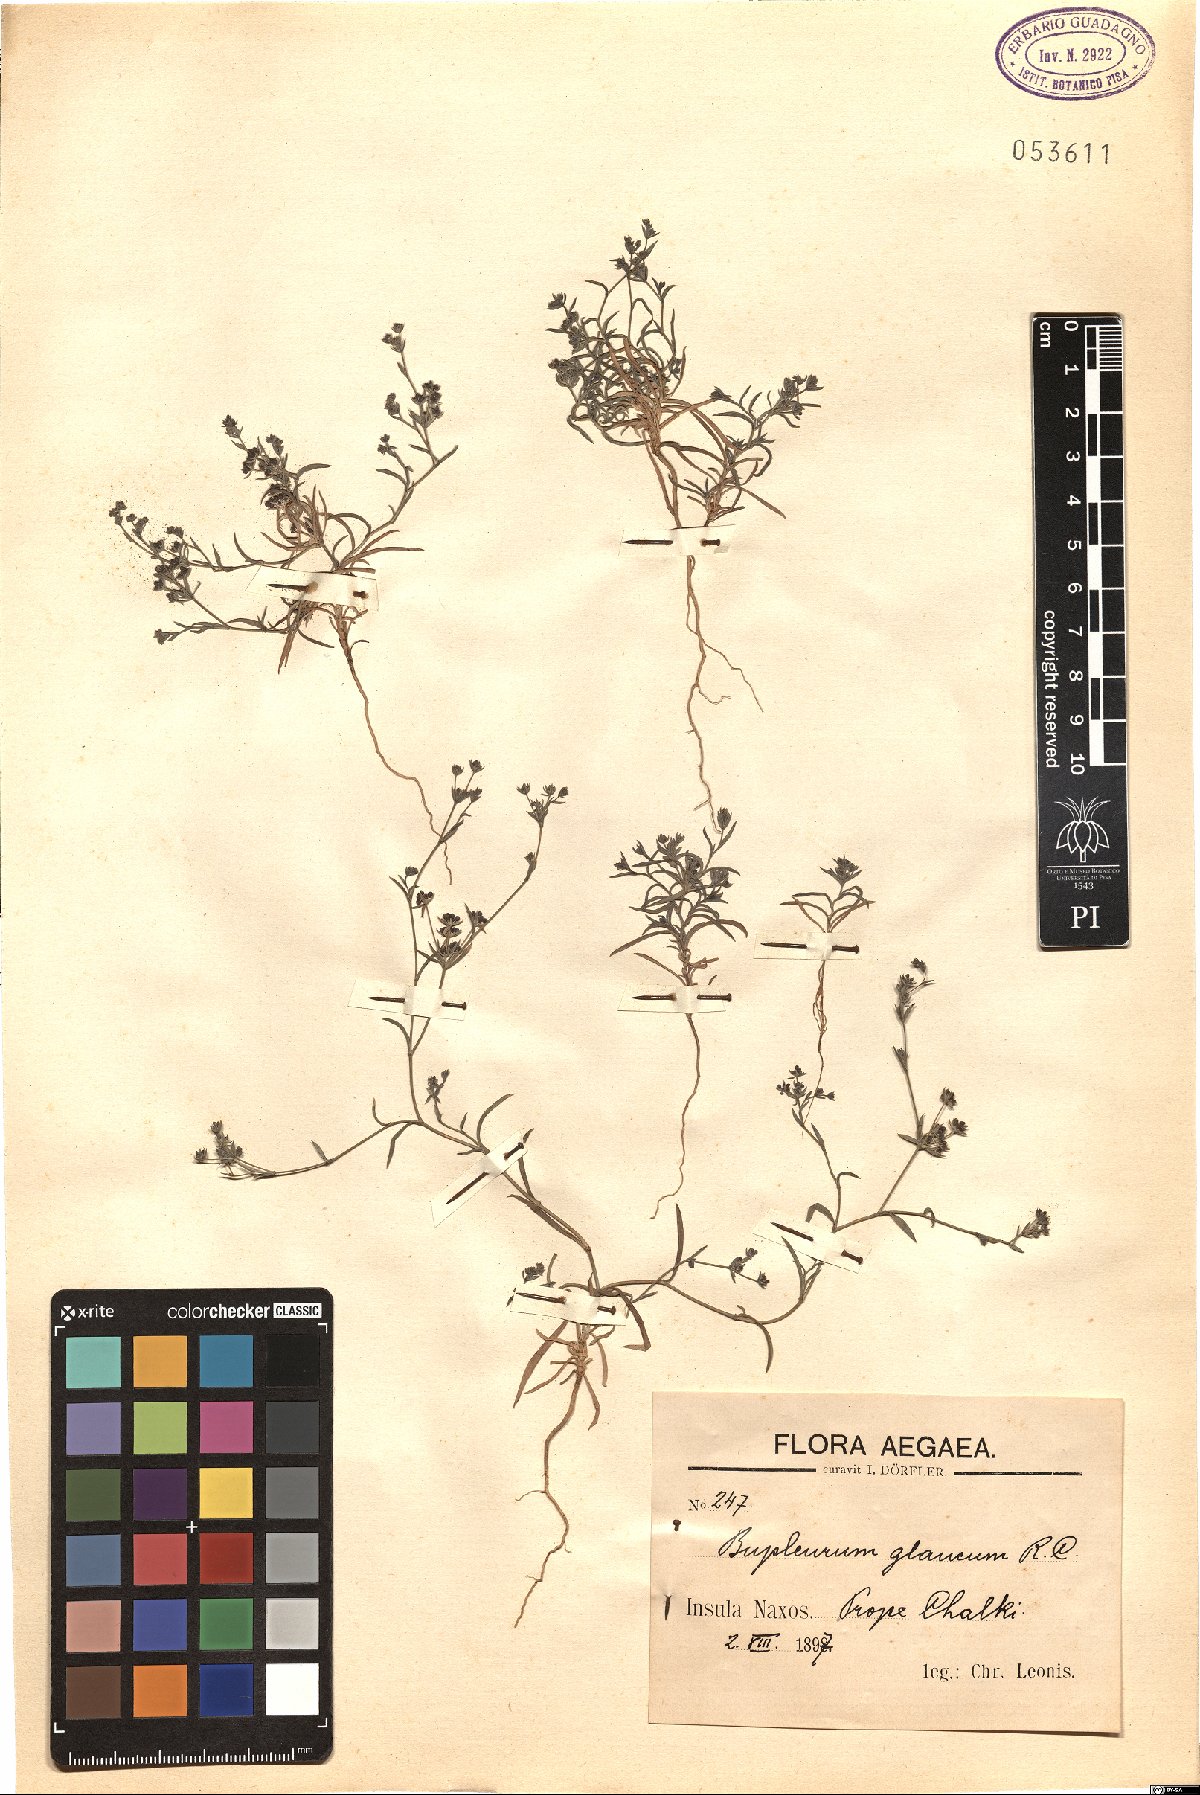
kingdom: Plantae
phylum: Tracheophyta
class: Magnoliopsida
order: Apiales
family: Apiaceae
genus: Bupleurum
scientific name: Bupleurum semicompositum
